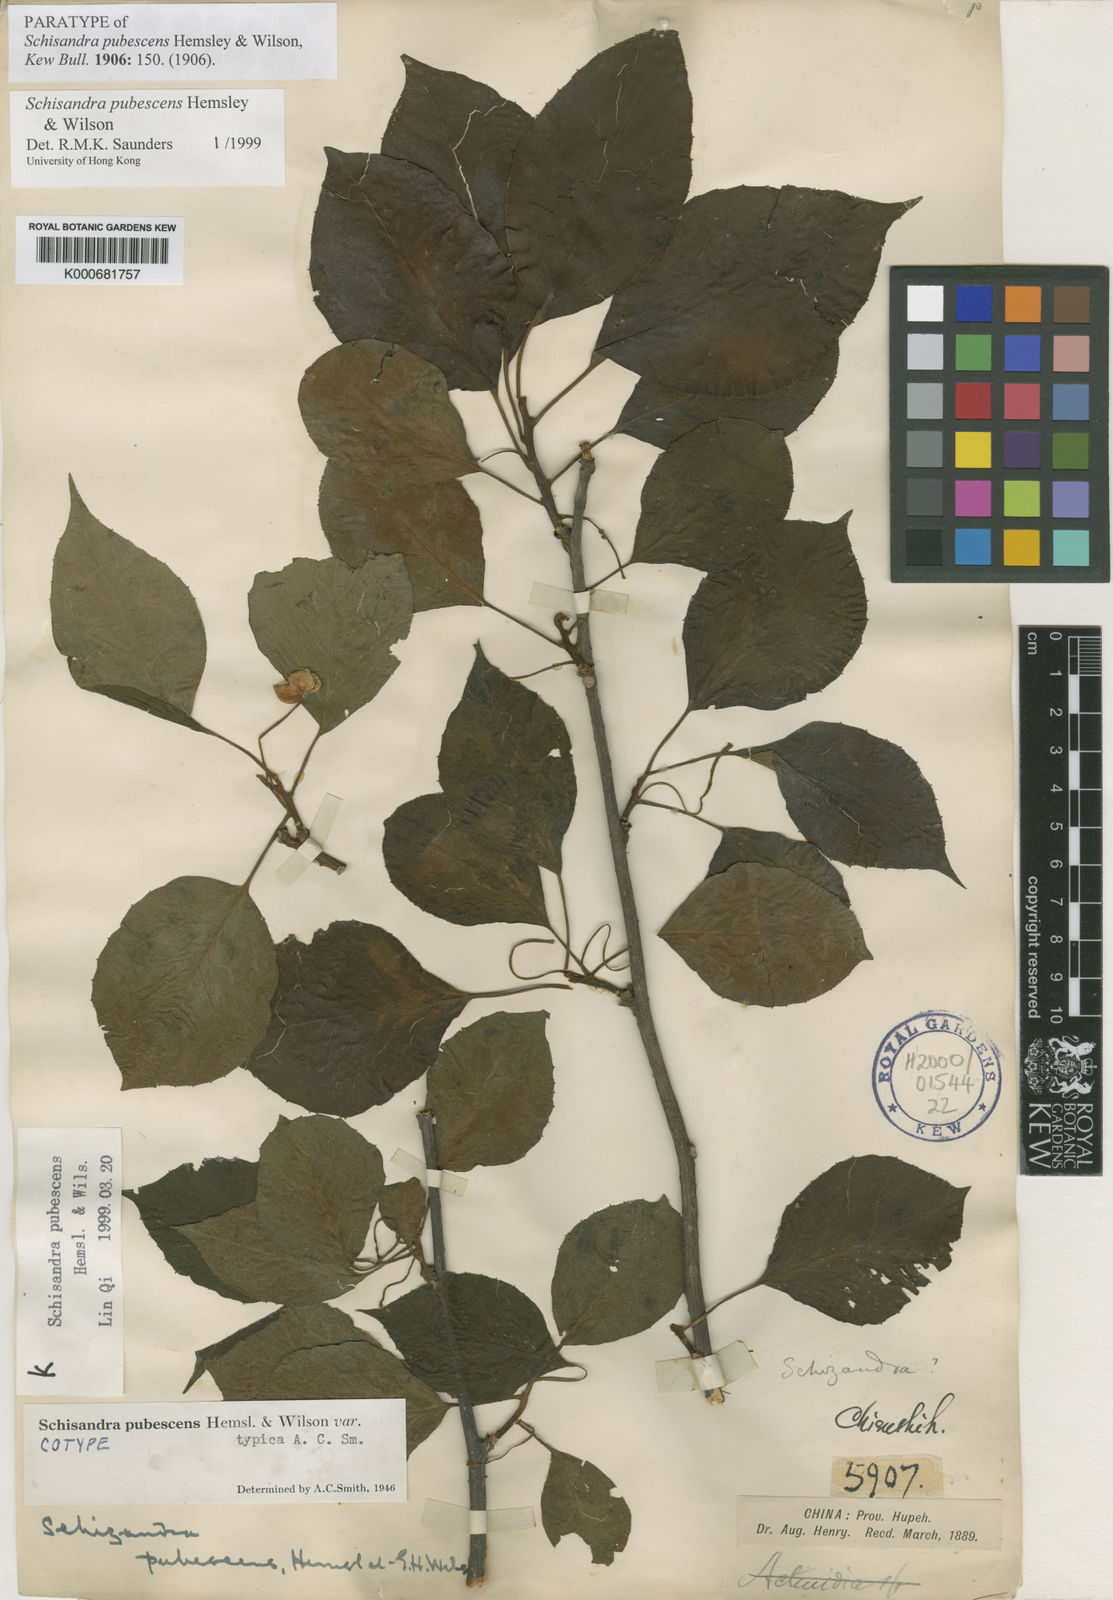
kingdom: Plantae
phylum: Tracheophyta
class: Magnoliopsida
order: Austrobaileyales
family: Schisandraceae
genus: Schisandra
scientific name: Schisandra pubescens
